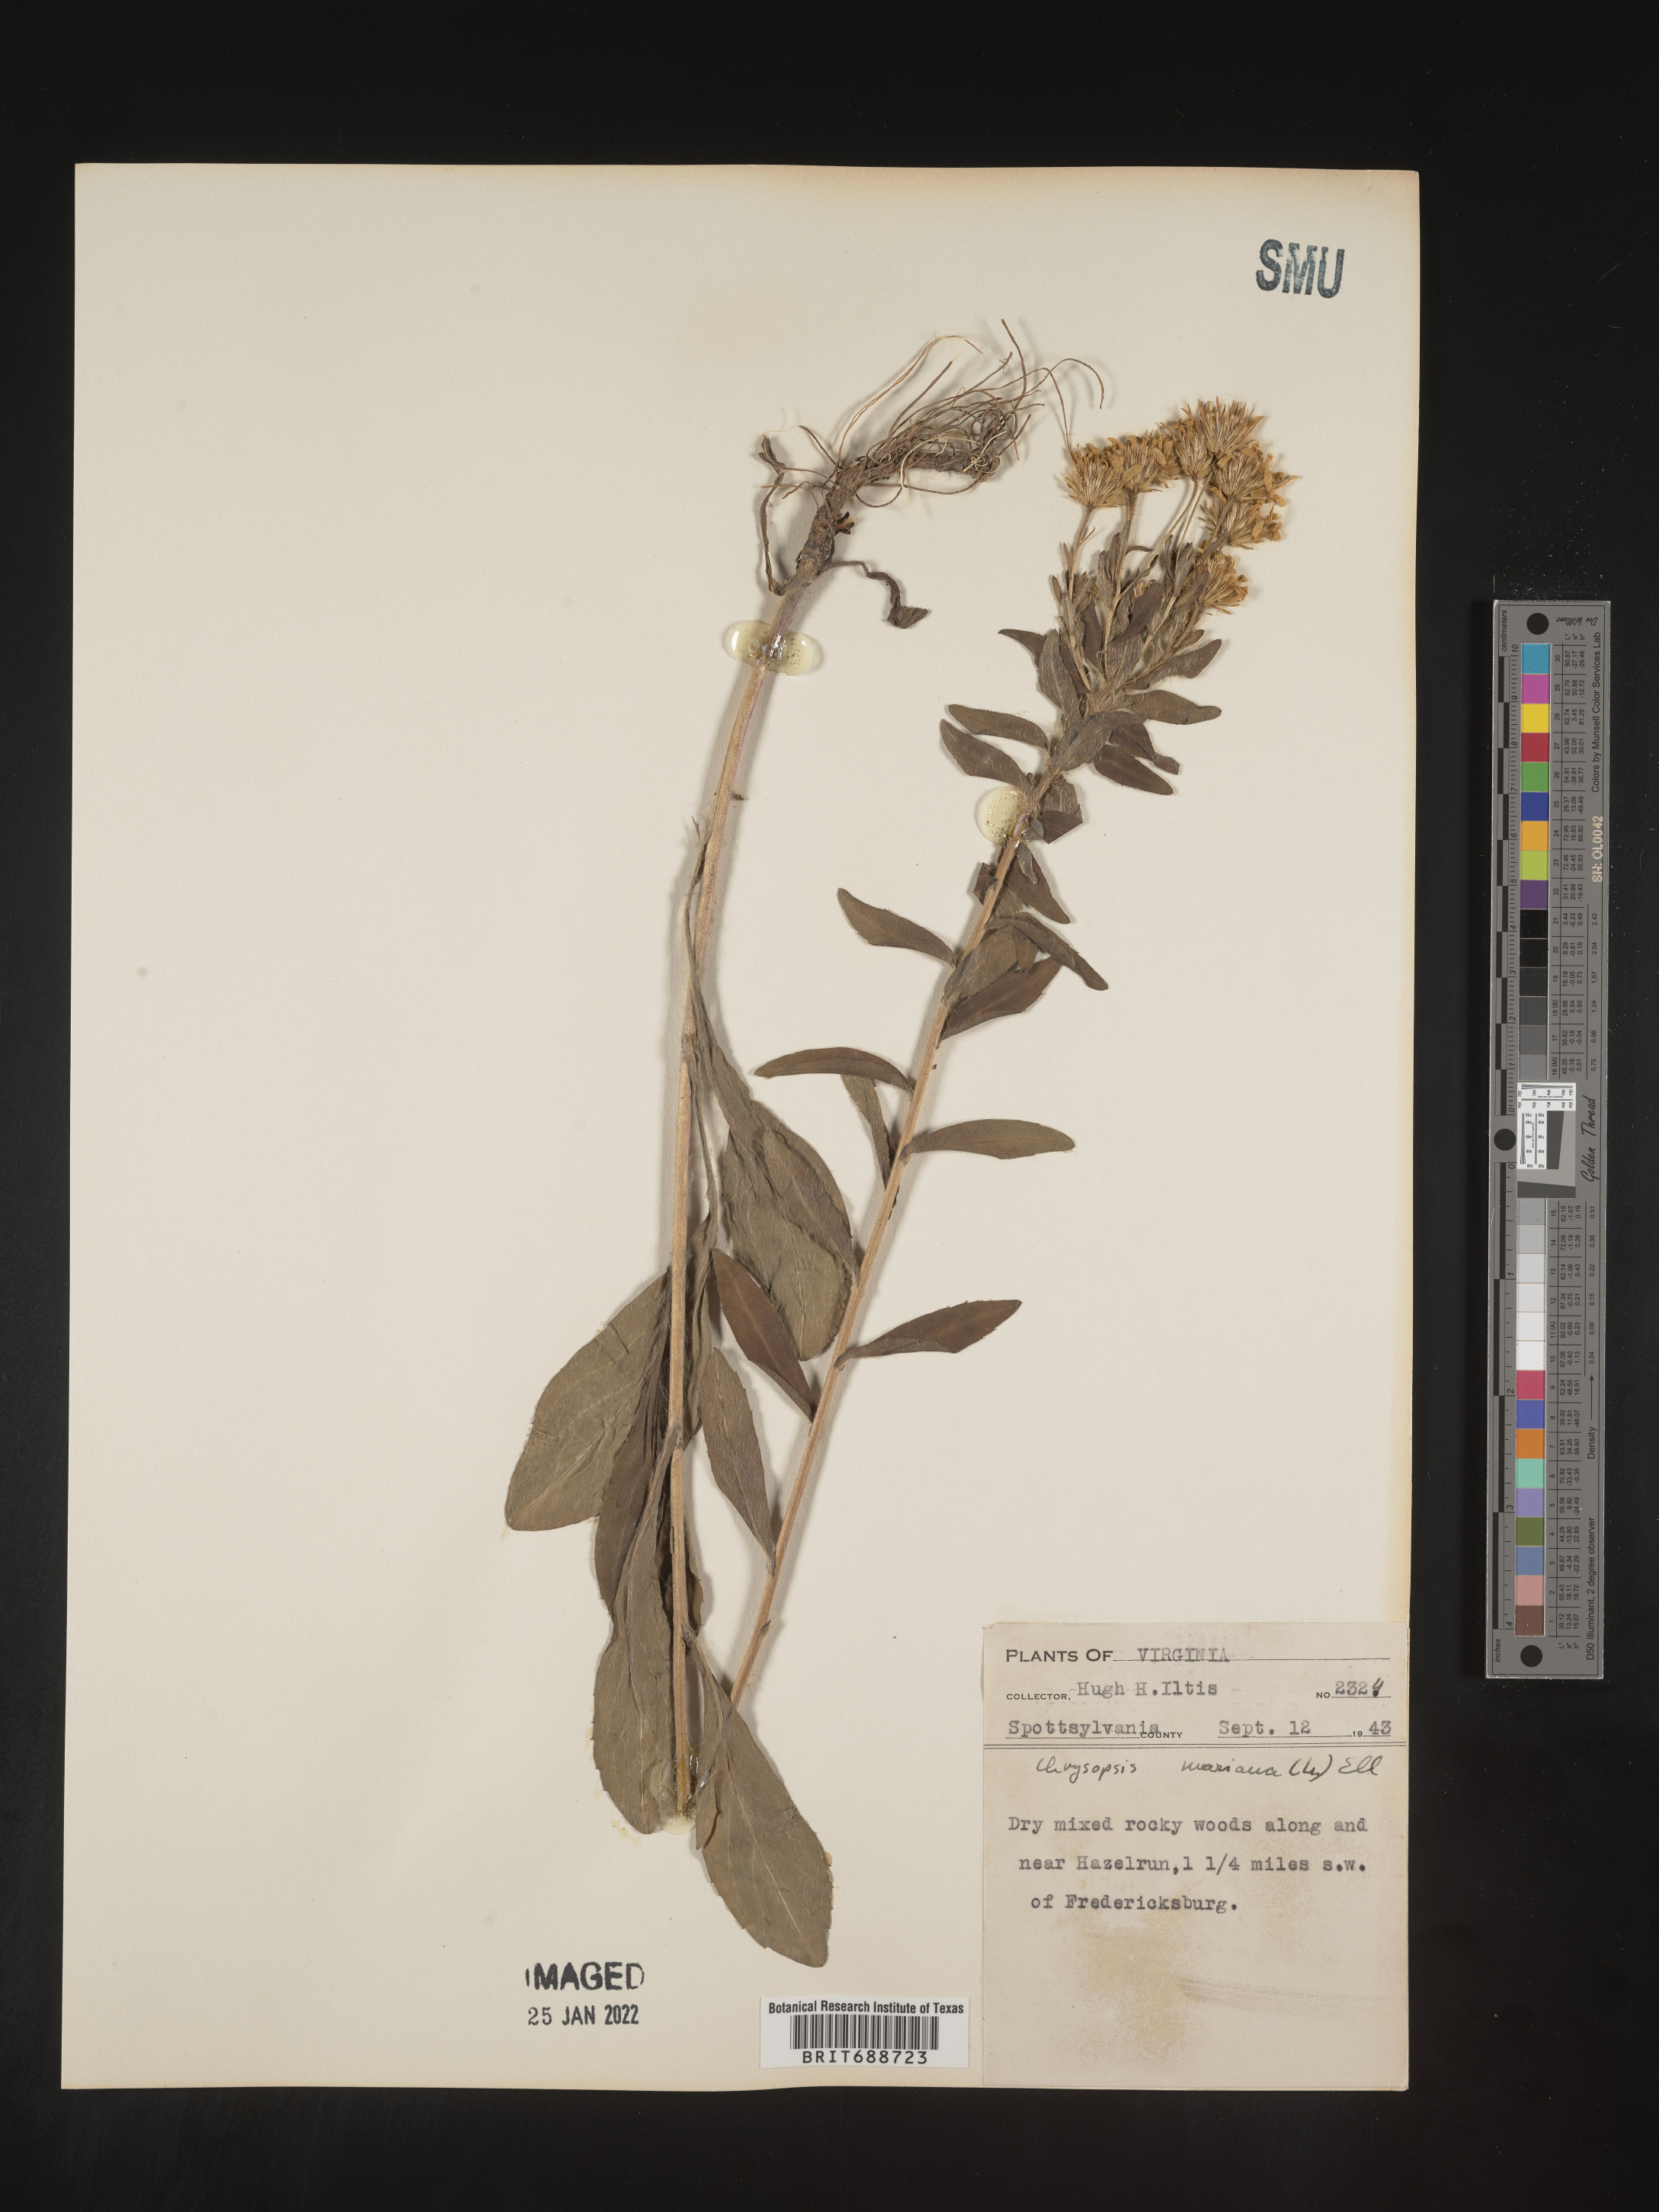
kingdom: Plantae
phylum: Tracheophyta
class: Magnoliopsida
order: Asterales
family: Asteraceae
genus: Chrysopsis
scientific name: Chrysopsis mariana
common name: Maryland golden-aster
